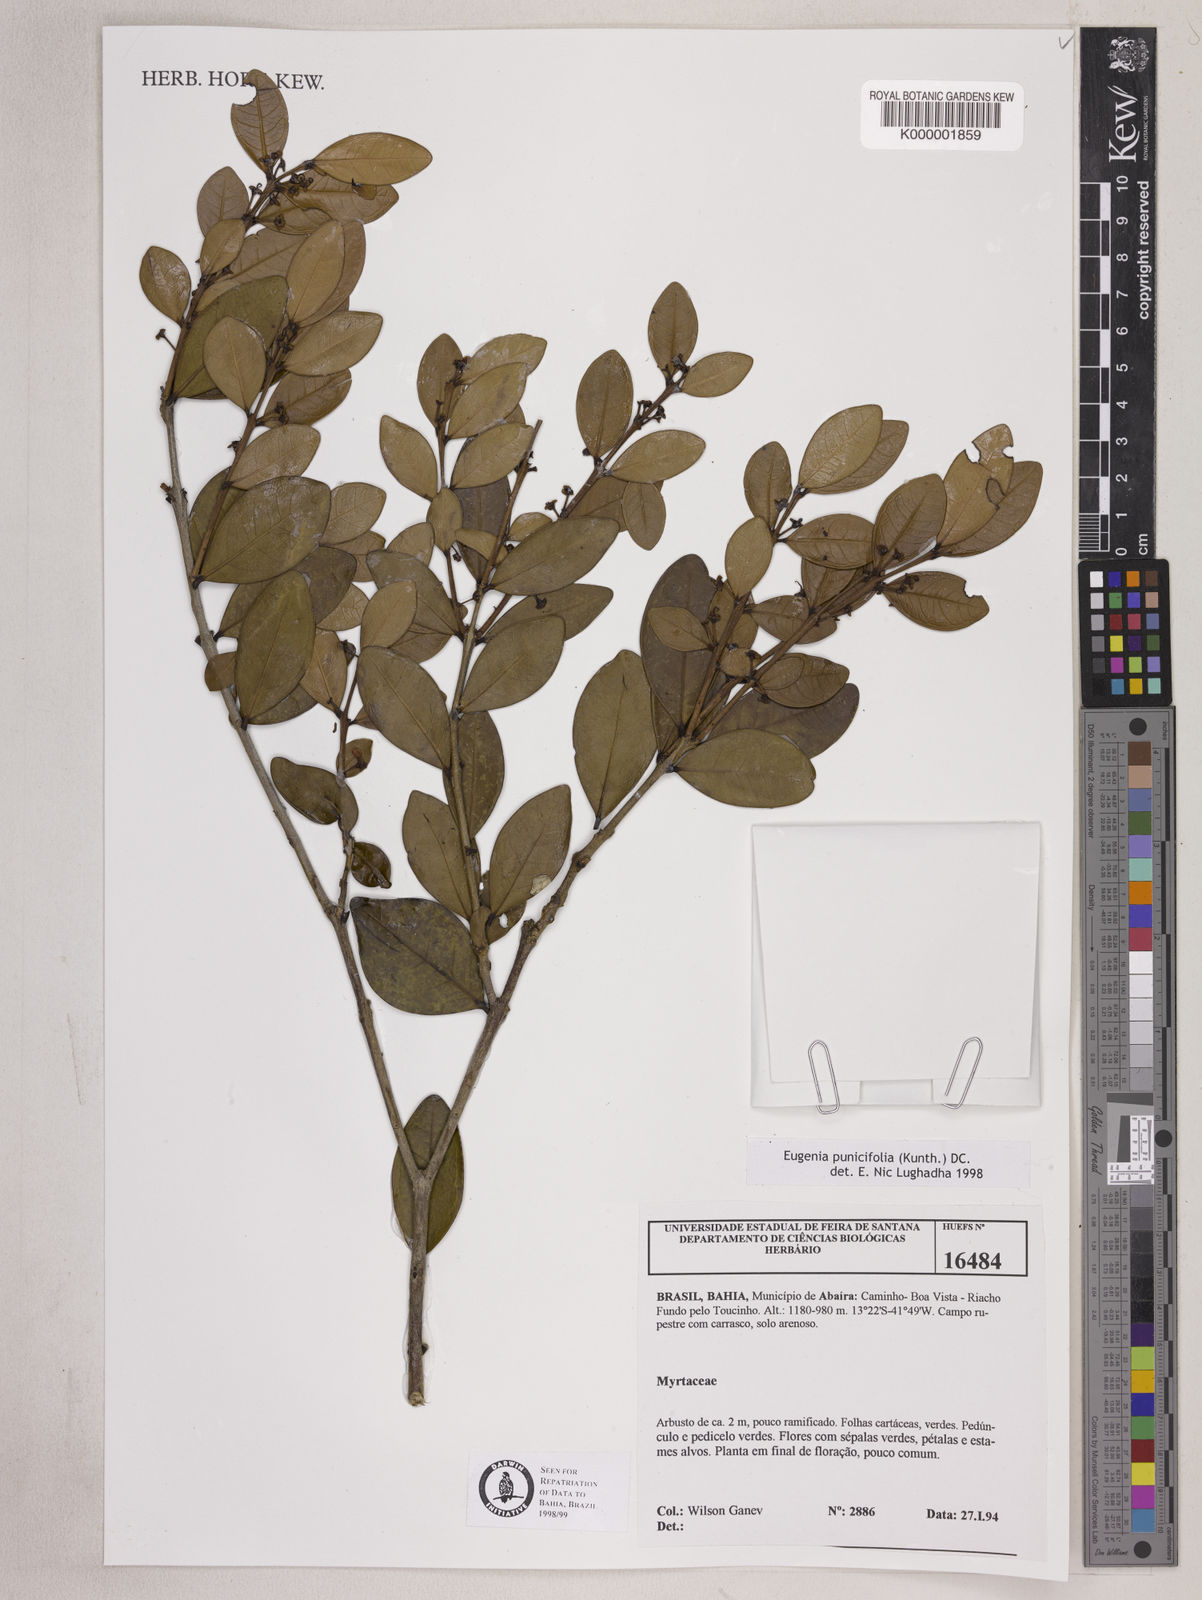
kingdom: Plantae
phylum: Tracheophyta
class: Magnoliopsida
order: Myrtales
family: Myrtaceae
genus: Eugenia
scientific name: Eugenia punicifolia
